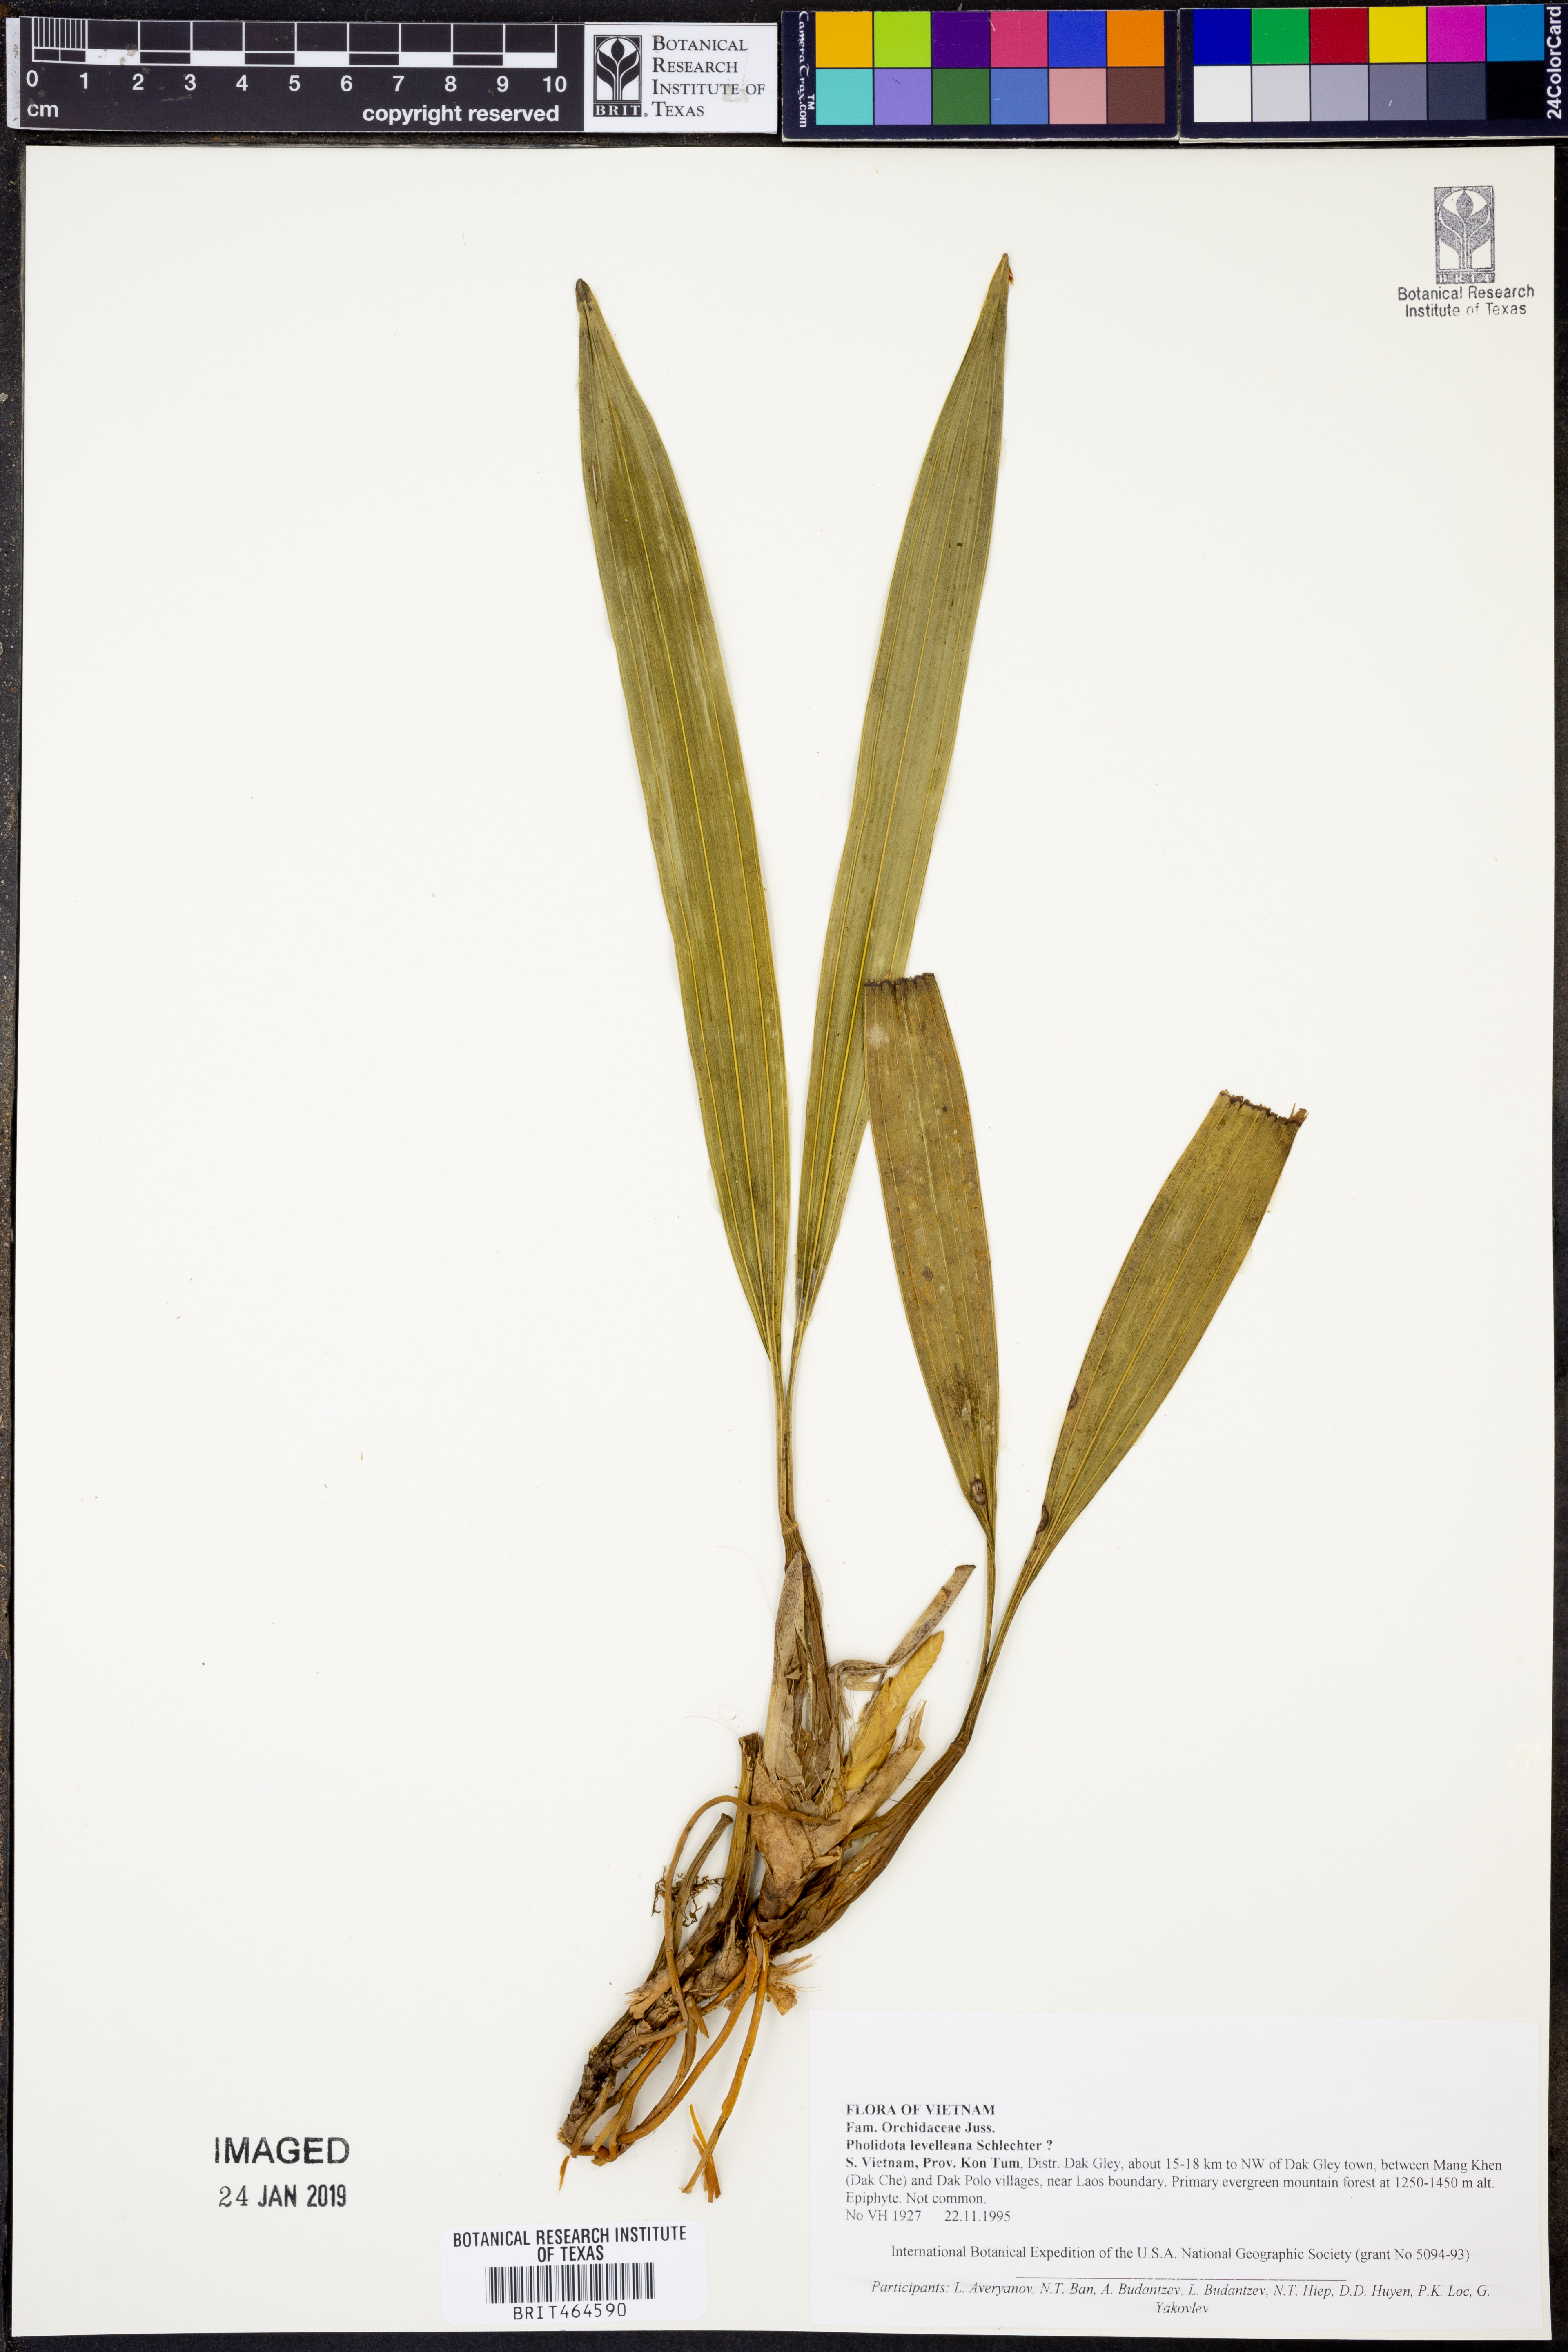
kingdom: Plantae
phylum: Tracheophyta
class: Liliopsida
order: Asparagales
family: Orchidaceae
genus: Coelogyne
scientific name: Coelogyne leveilleana
